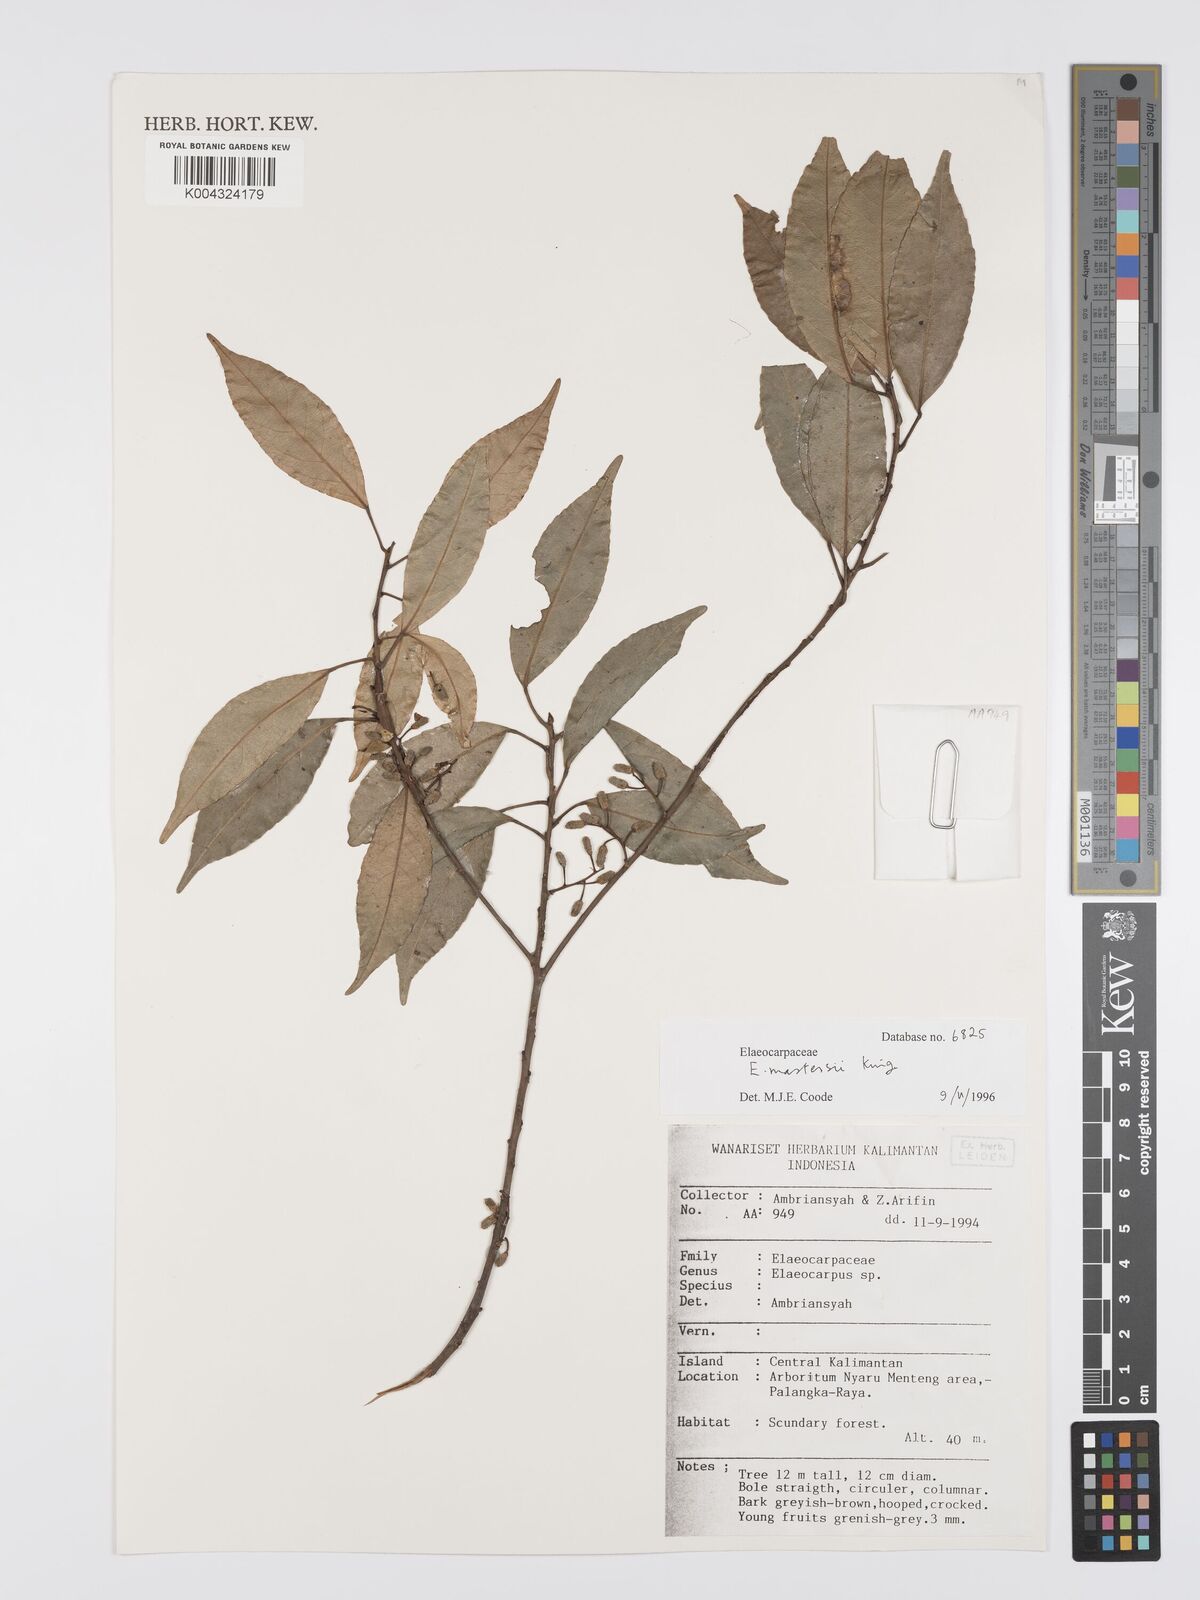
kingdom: Plantae
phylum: Tracheophyta
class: Magnoliopsida
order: Oxalidales
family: Elaeocarpaceae
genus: Elaeocarpus
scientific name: Elaeocarpus mastersii
